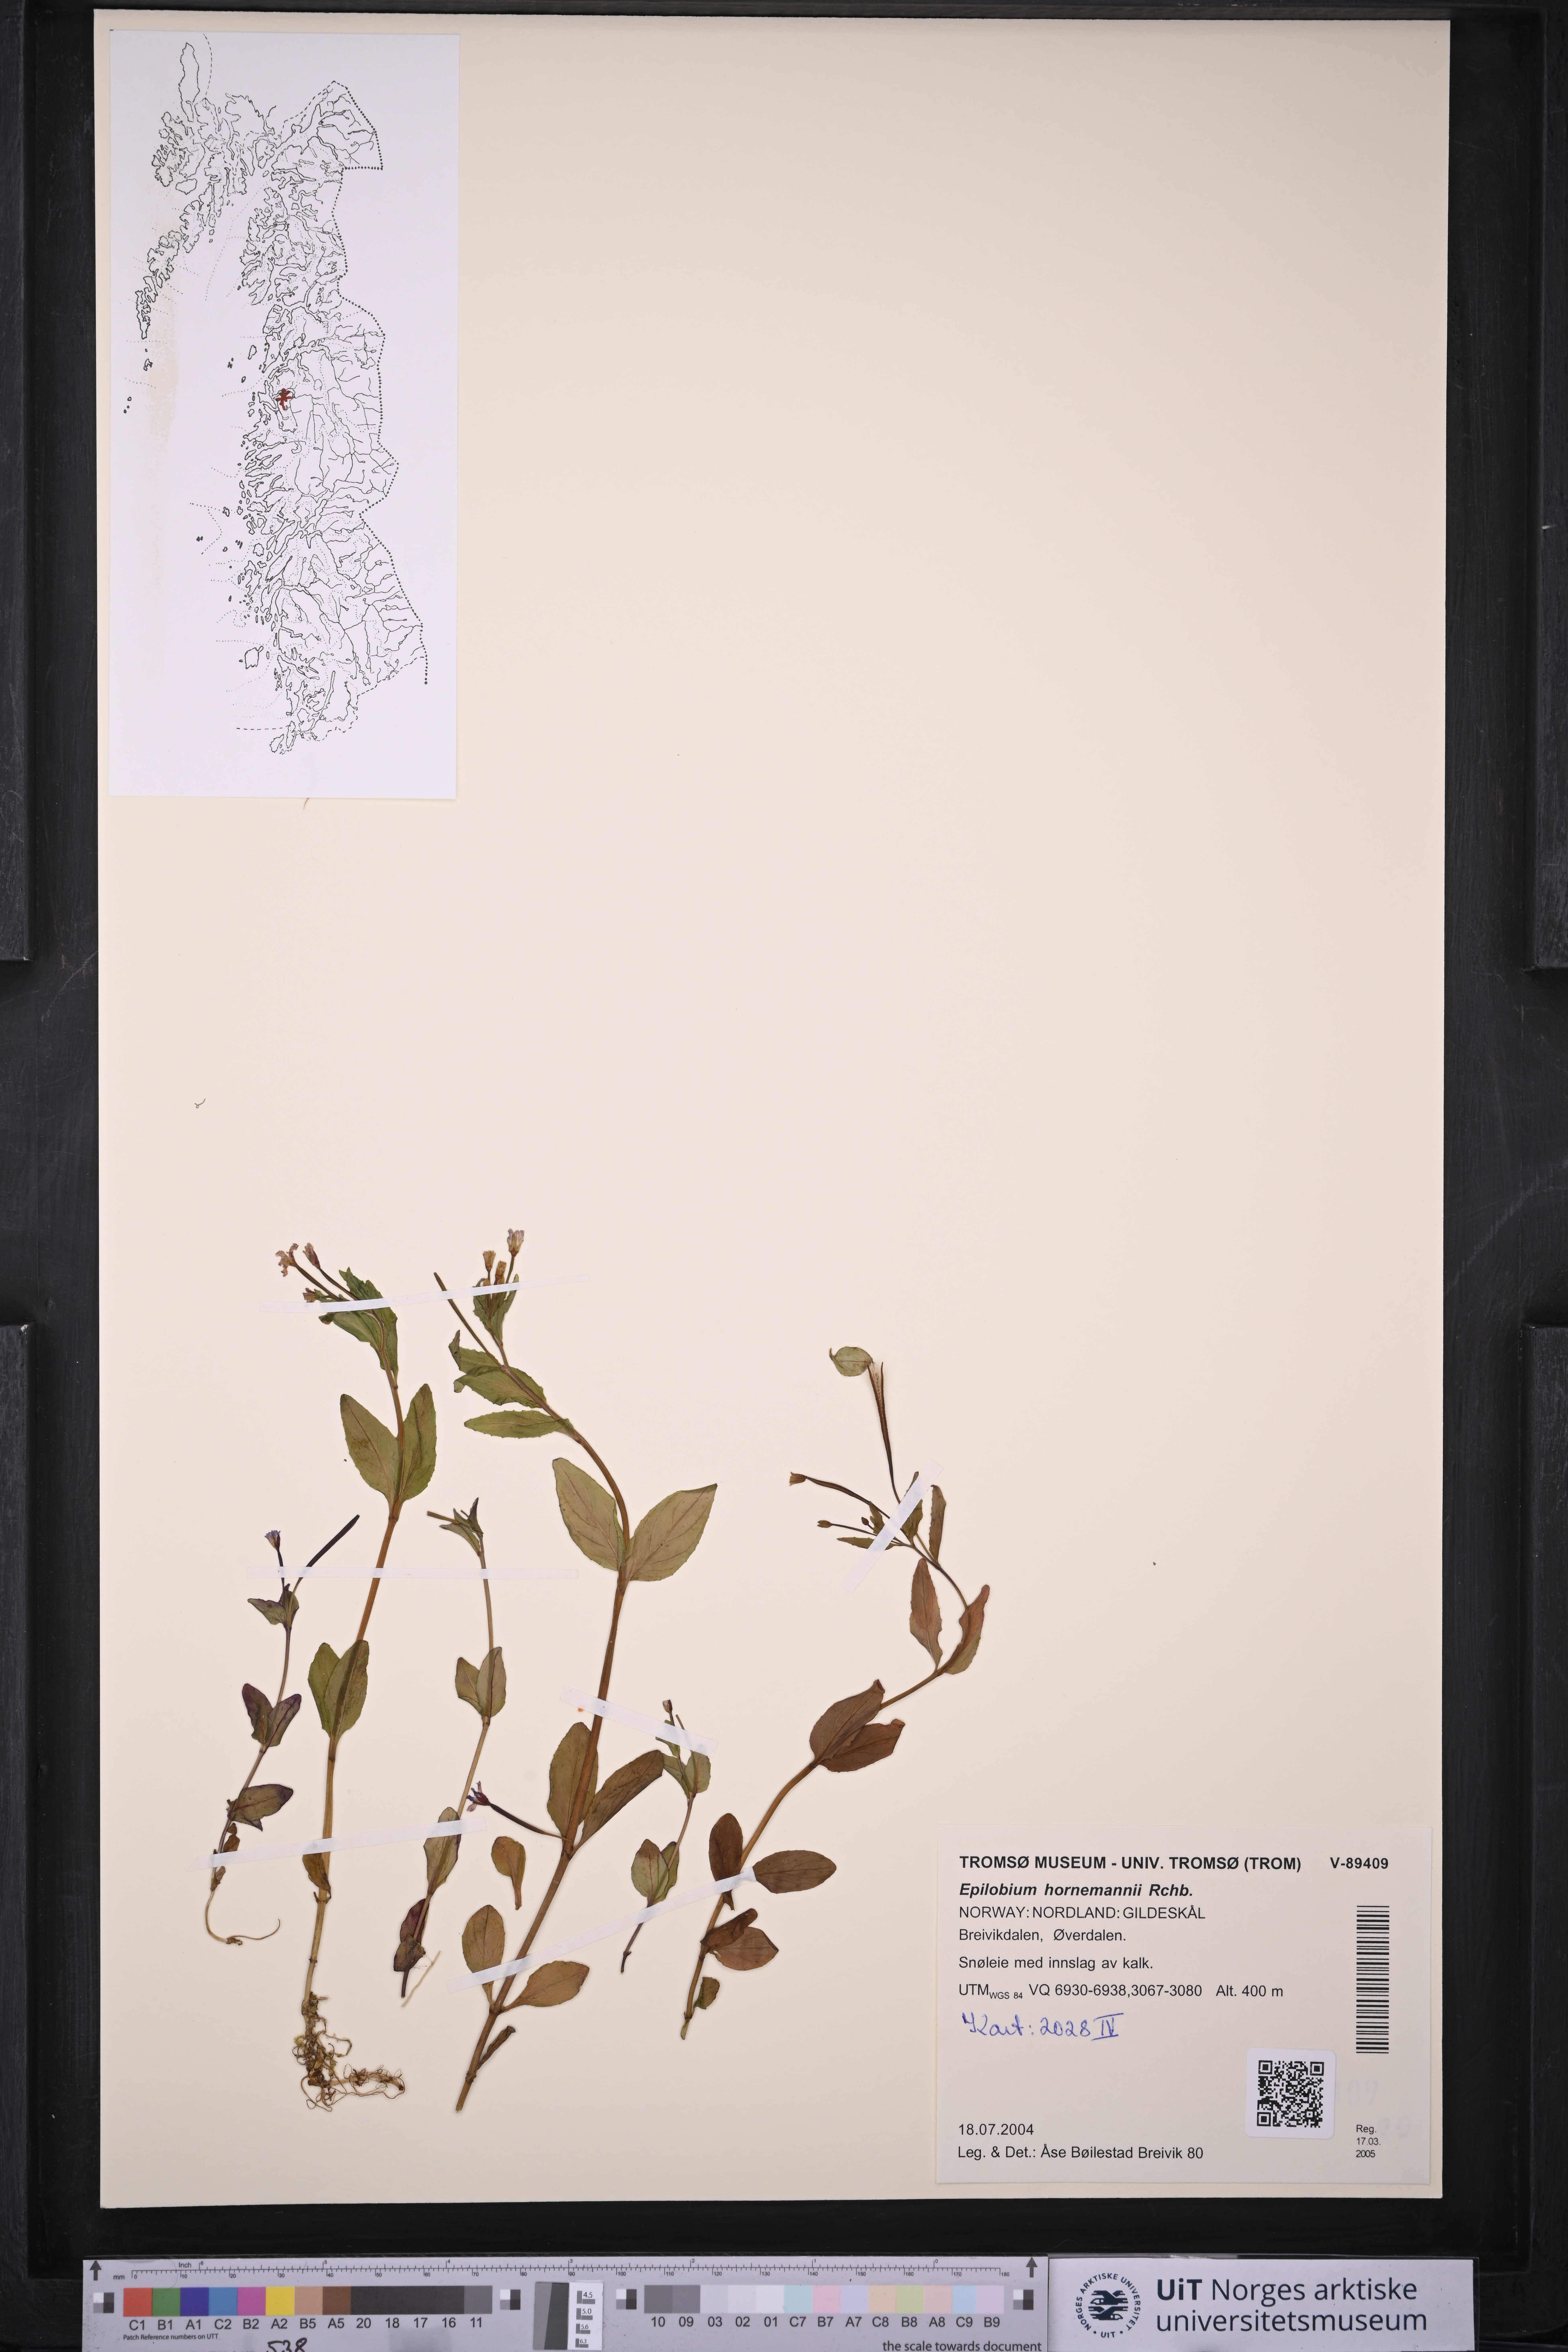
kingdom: Plantae
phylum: Tracheophyta
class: Magnoliopsida
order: Myrtales
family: Onagraceae
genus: Epilobium
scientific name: Epilobium hornemannii
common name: Hornemann's willowherb
